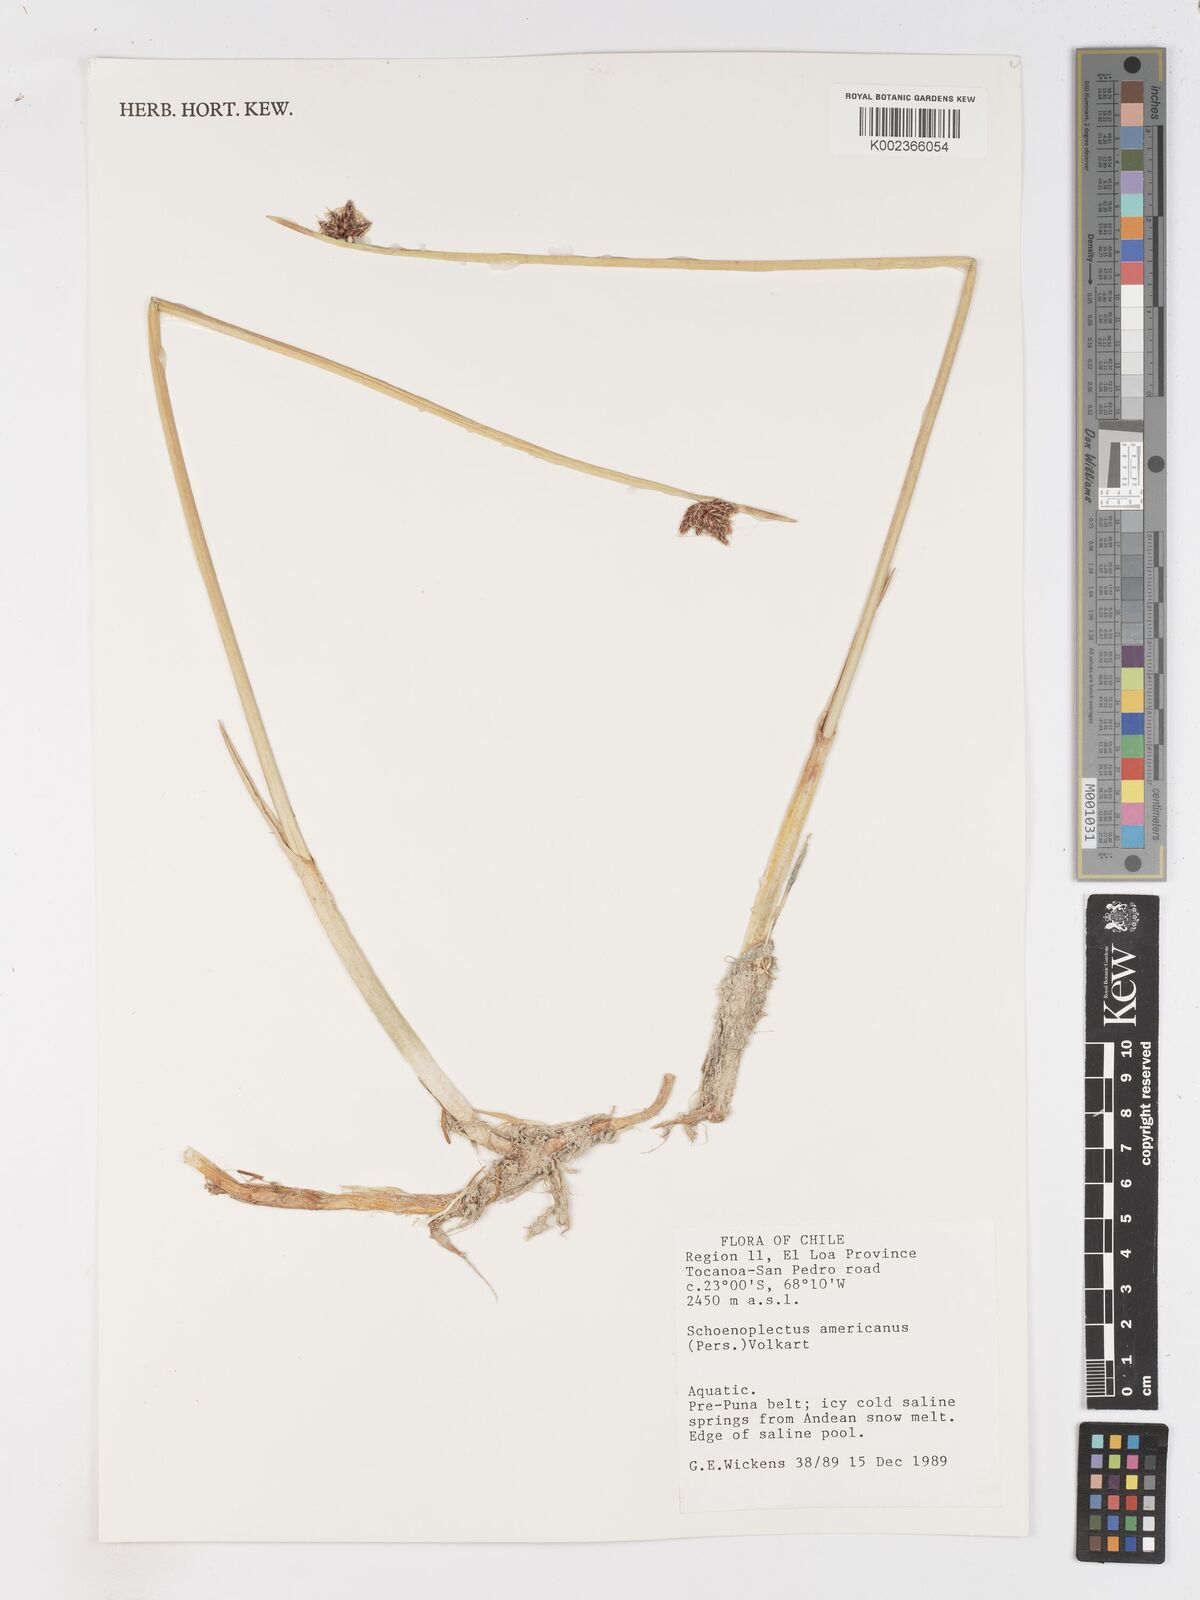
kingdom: Plantae
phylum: Tracheophyta
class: Liliopsida
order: Poales
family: Cyperaceae
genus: Schoenoplectus
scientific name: Schoenoplectus americanus
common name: American three-square bulrush
